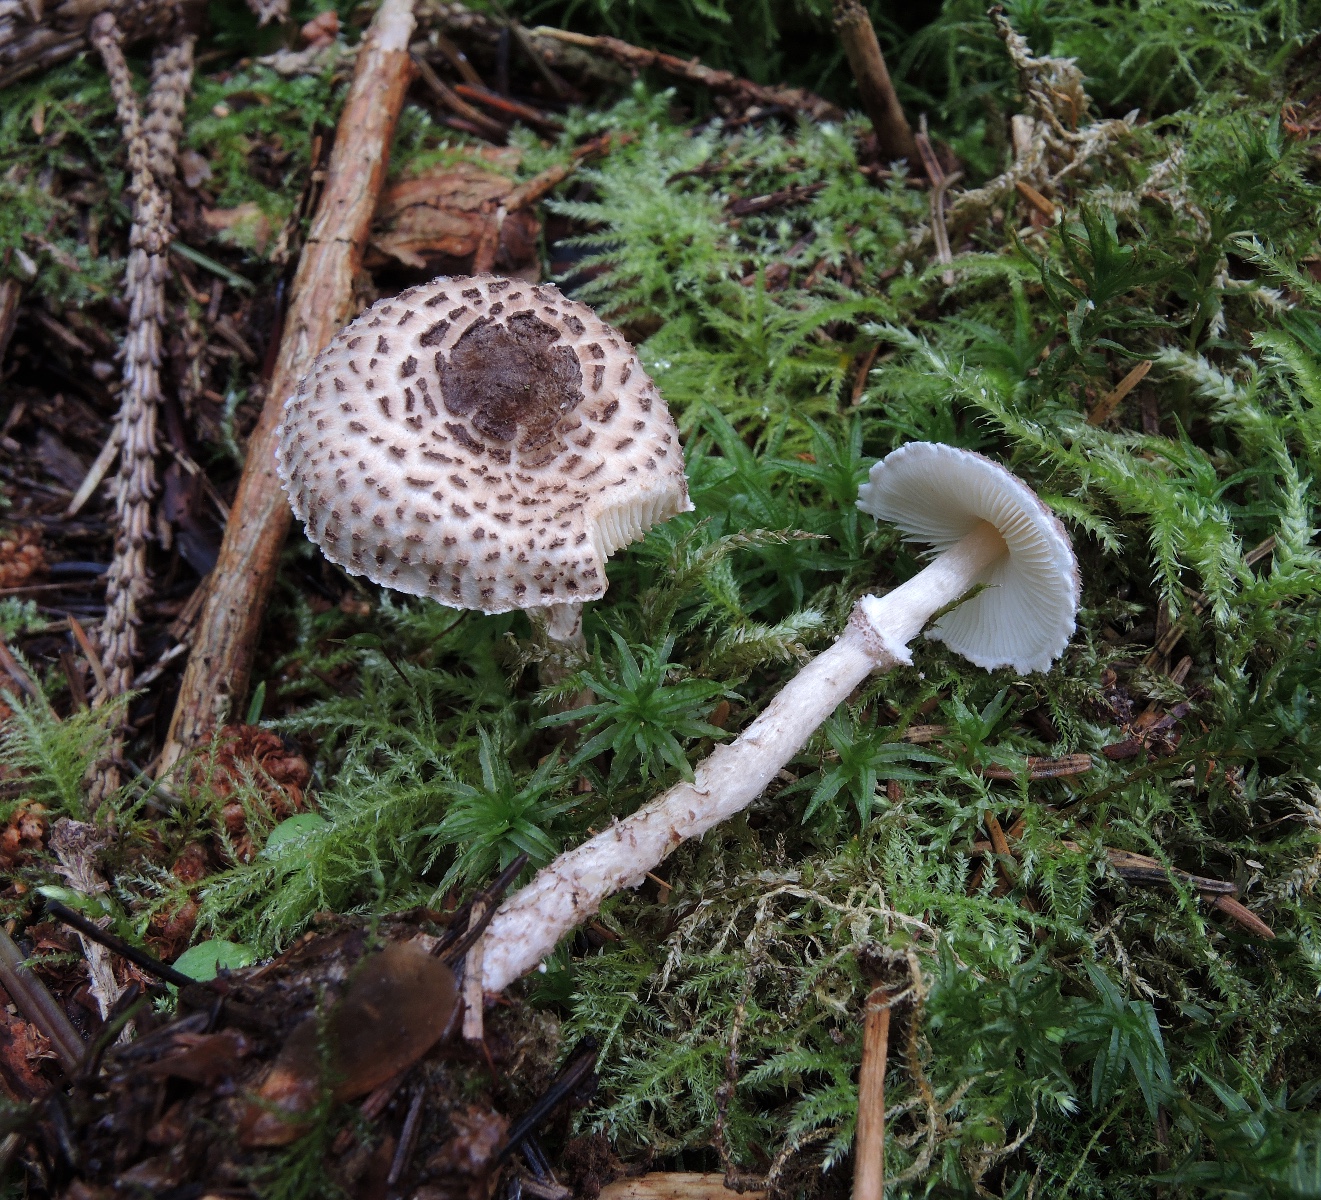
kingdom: Fungi
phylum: Basidiomycota
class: Agaricomycetes
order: Agaricales
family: Agaricaceae
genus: Lepiota
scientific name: Lepiota felina
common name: sortskællet parasolhat
